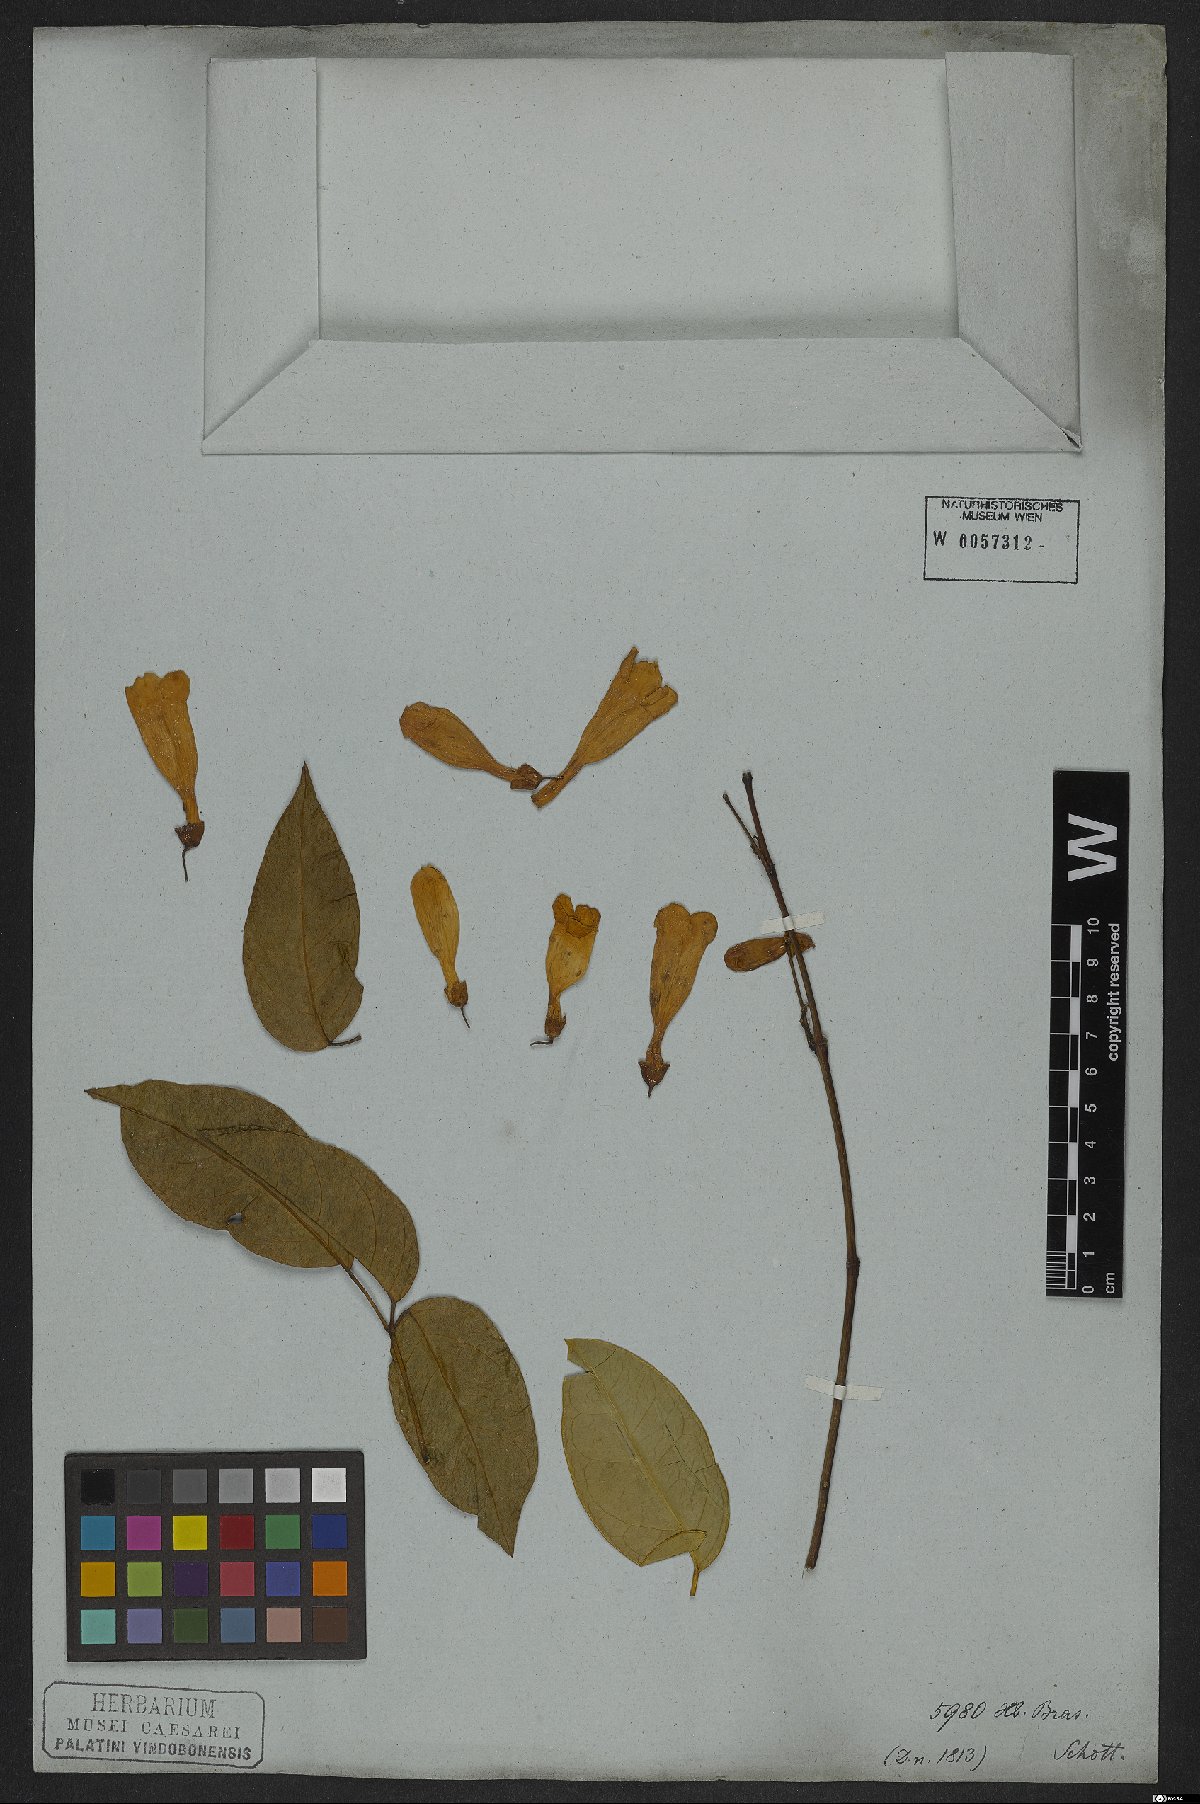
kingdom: Plantae
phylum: Tracheophyta
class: Magnoliopsida
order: Lamiales
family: Bignoniaceae
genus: Anemopaegma
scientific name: Anemopaegma chamberlaynii
